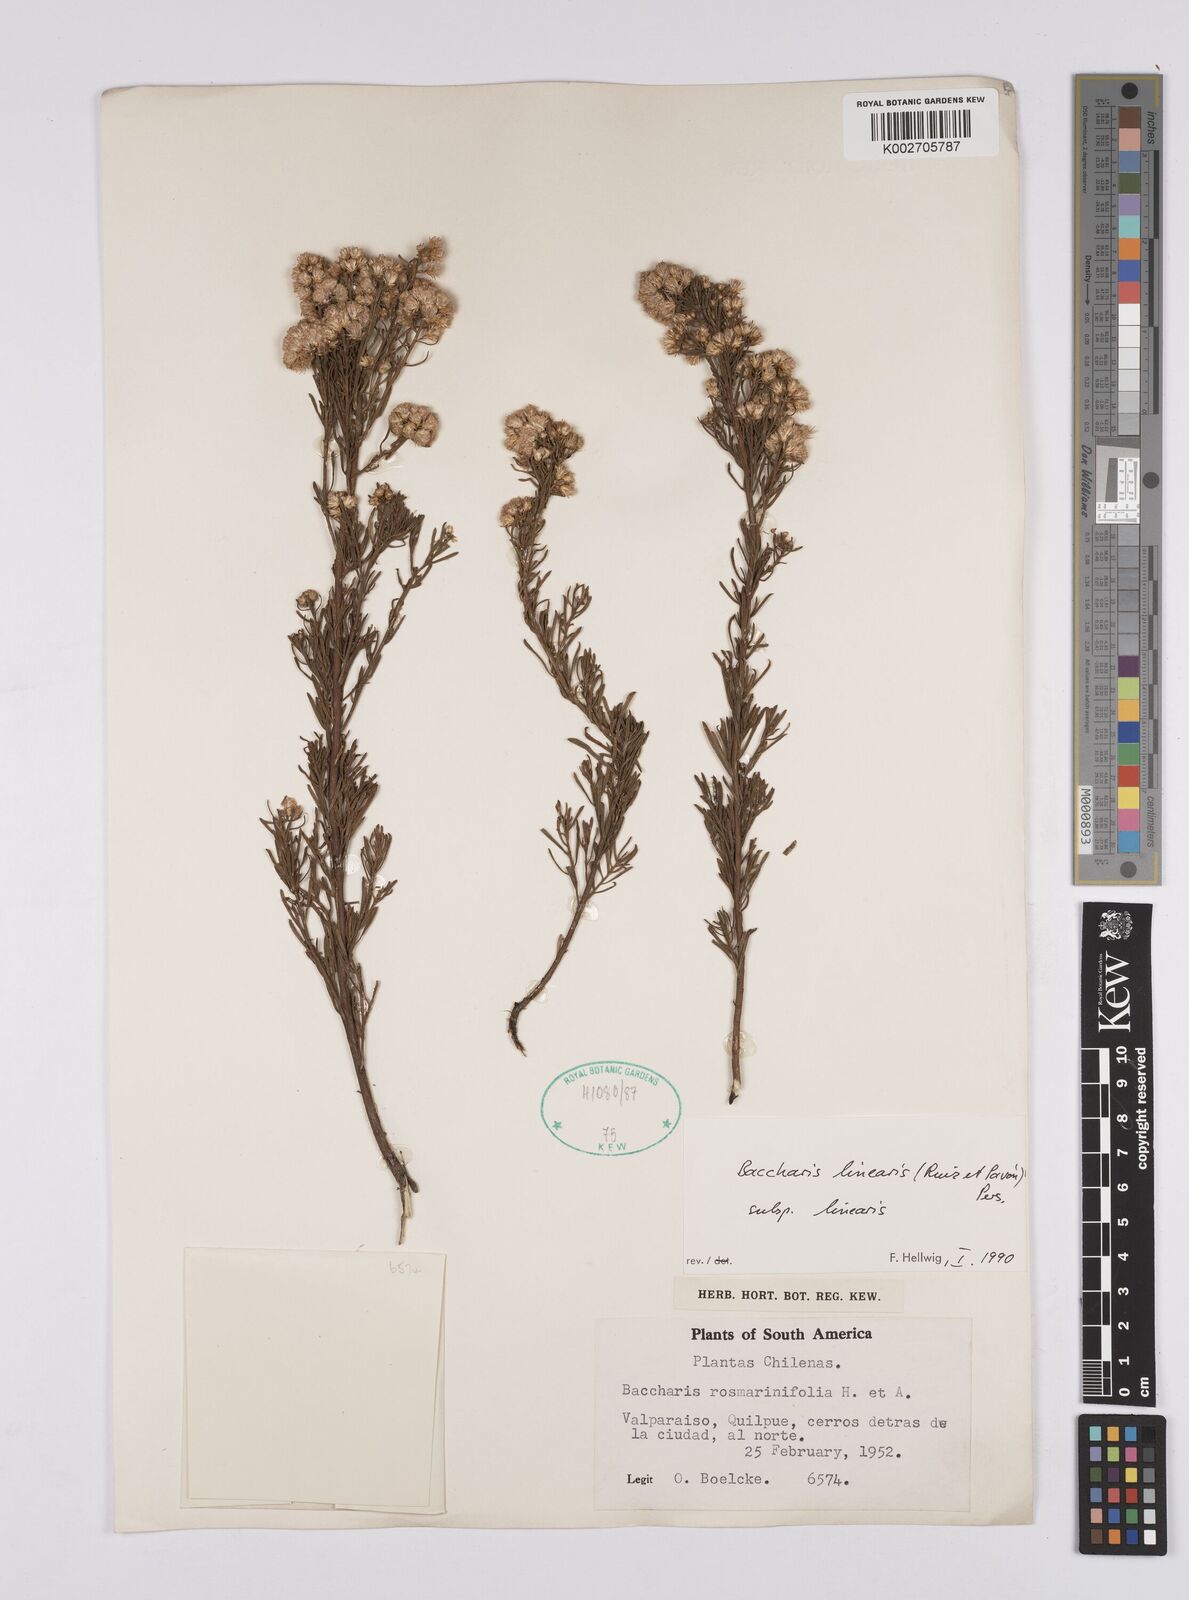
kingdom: Plantae
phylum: Tracheophyta
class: Magnoliopsida
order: Asterales
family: Asteraceae
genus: Baccharis
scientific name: Baccharis linearis
